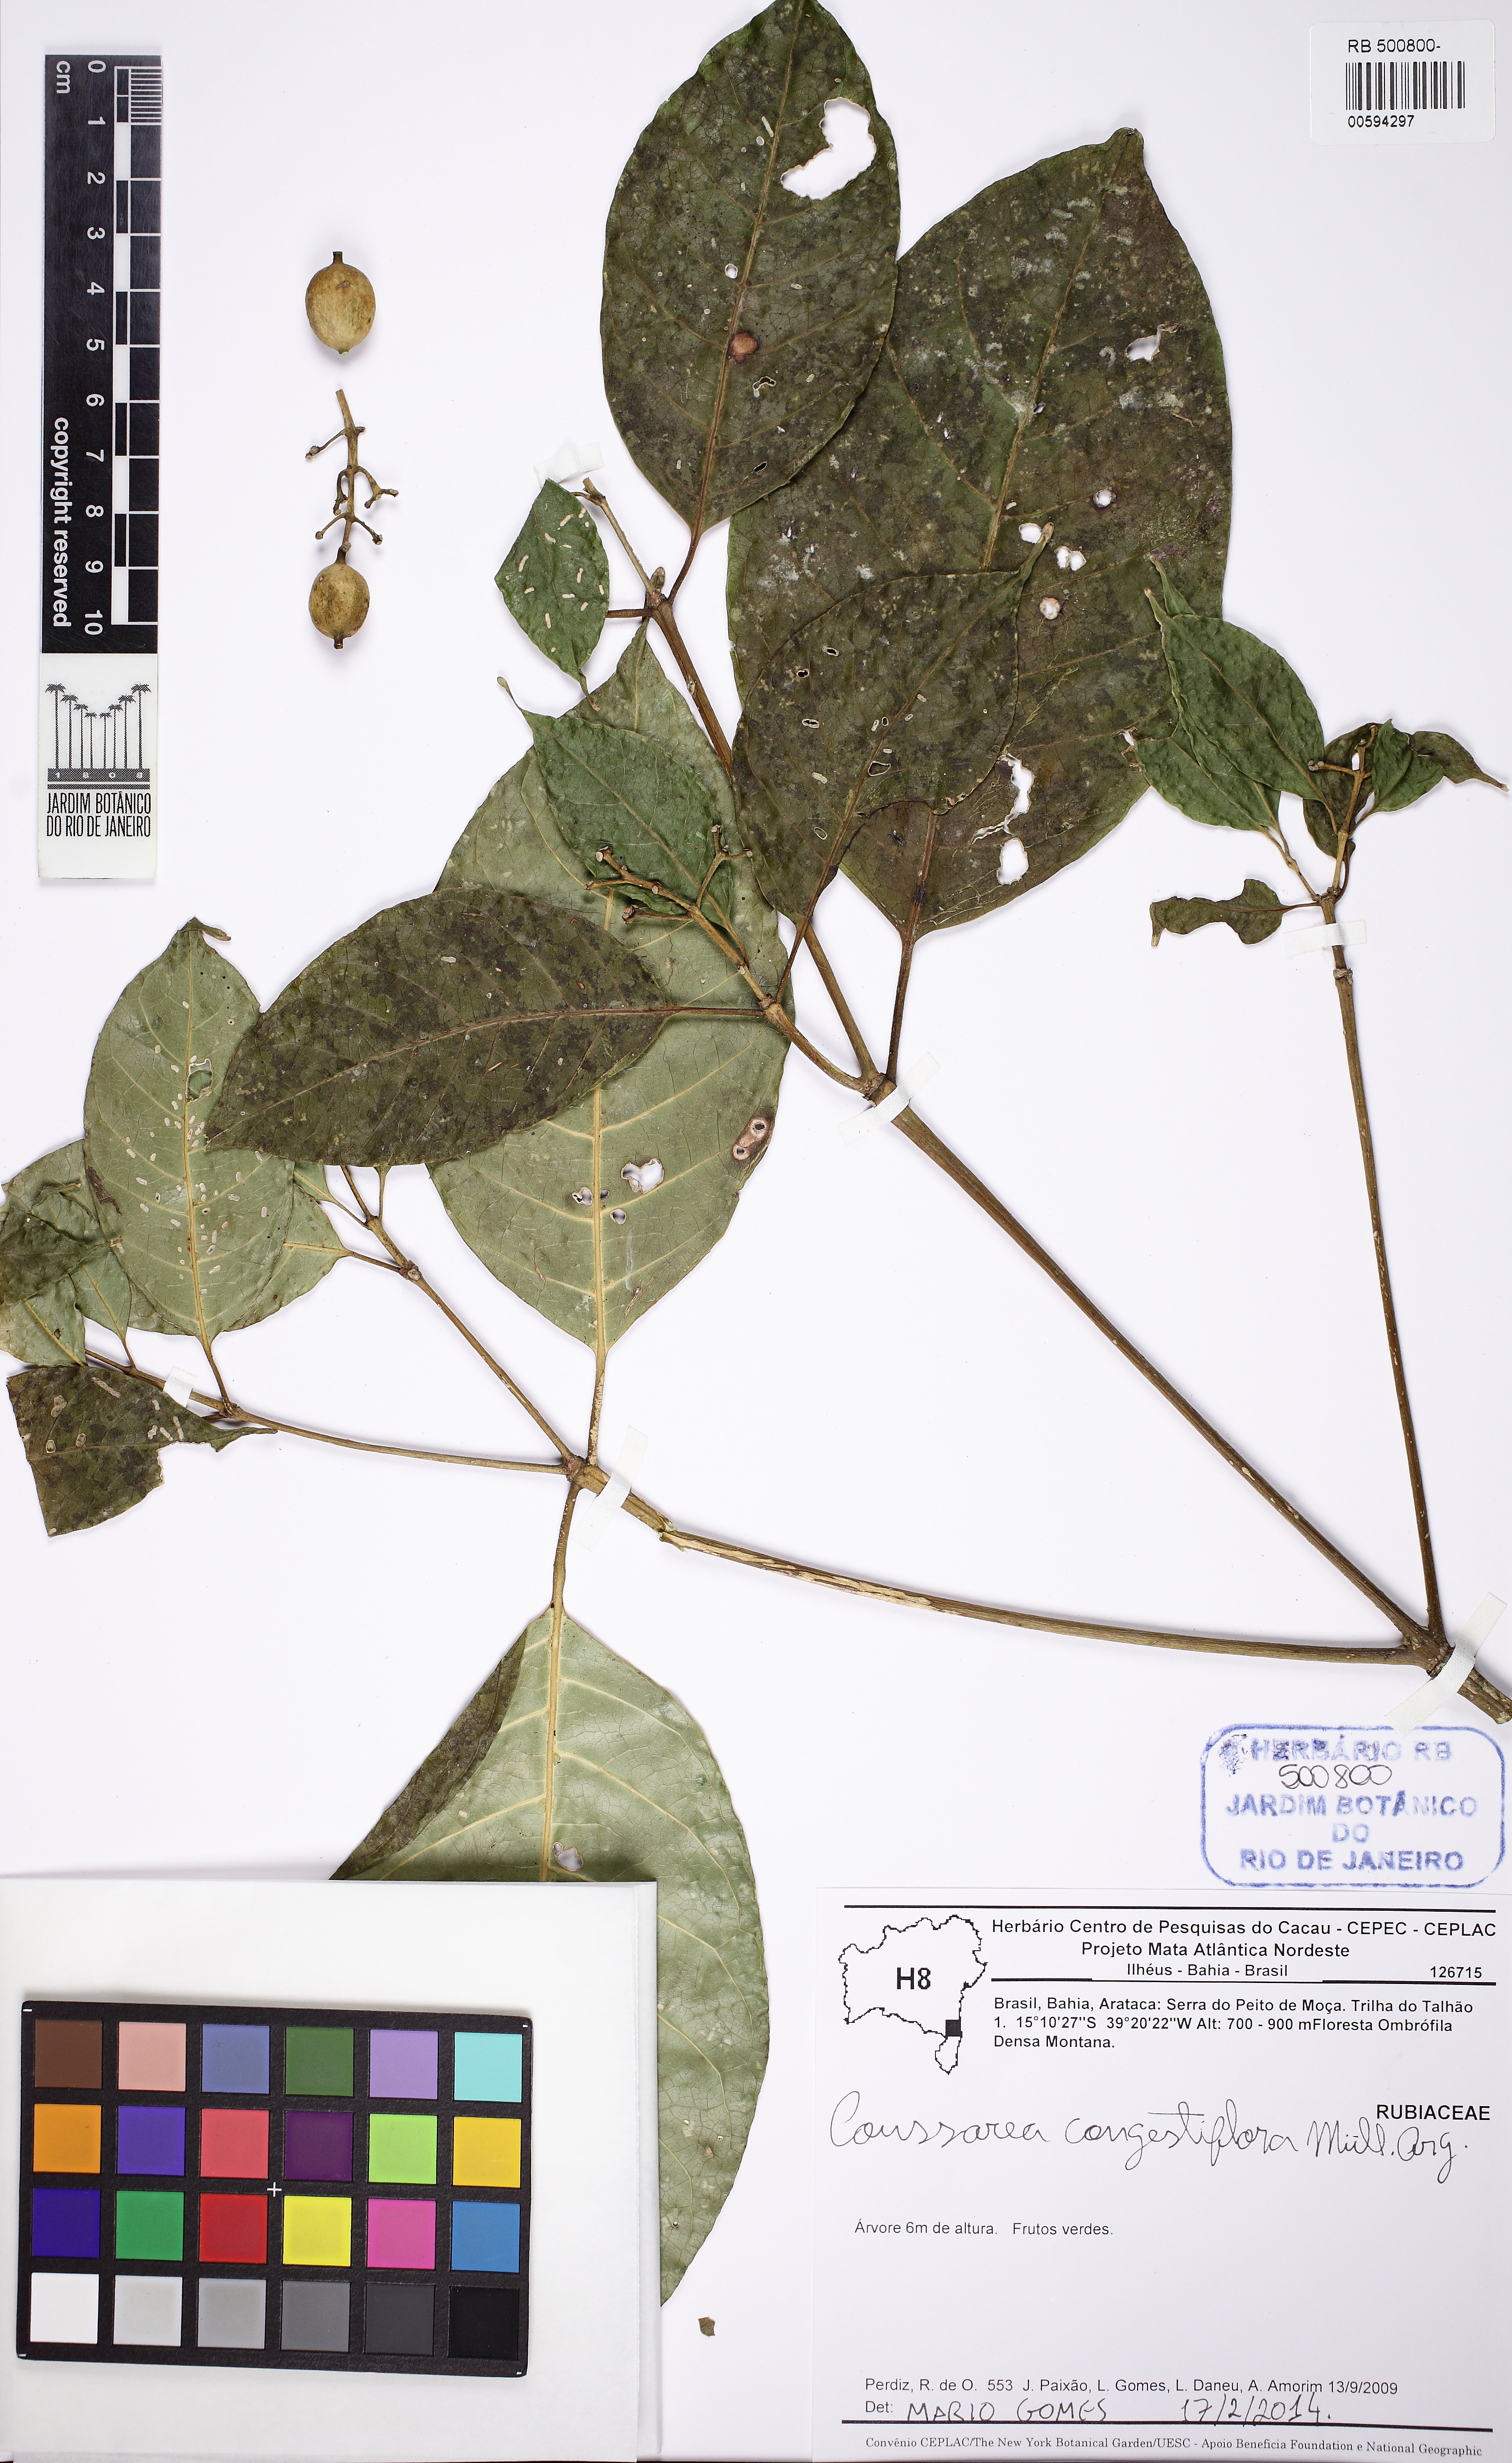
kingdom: Plantae
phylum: Tracheophyta
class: Magnoliopsida
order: Gentianales
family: Rubiaceae
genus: Coussarea
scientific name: Coussarea congestiflora
